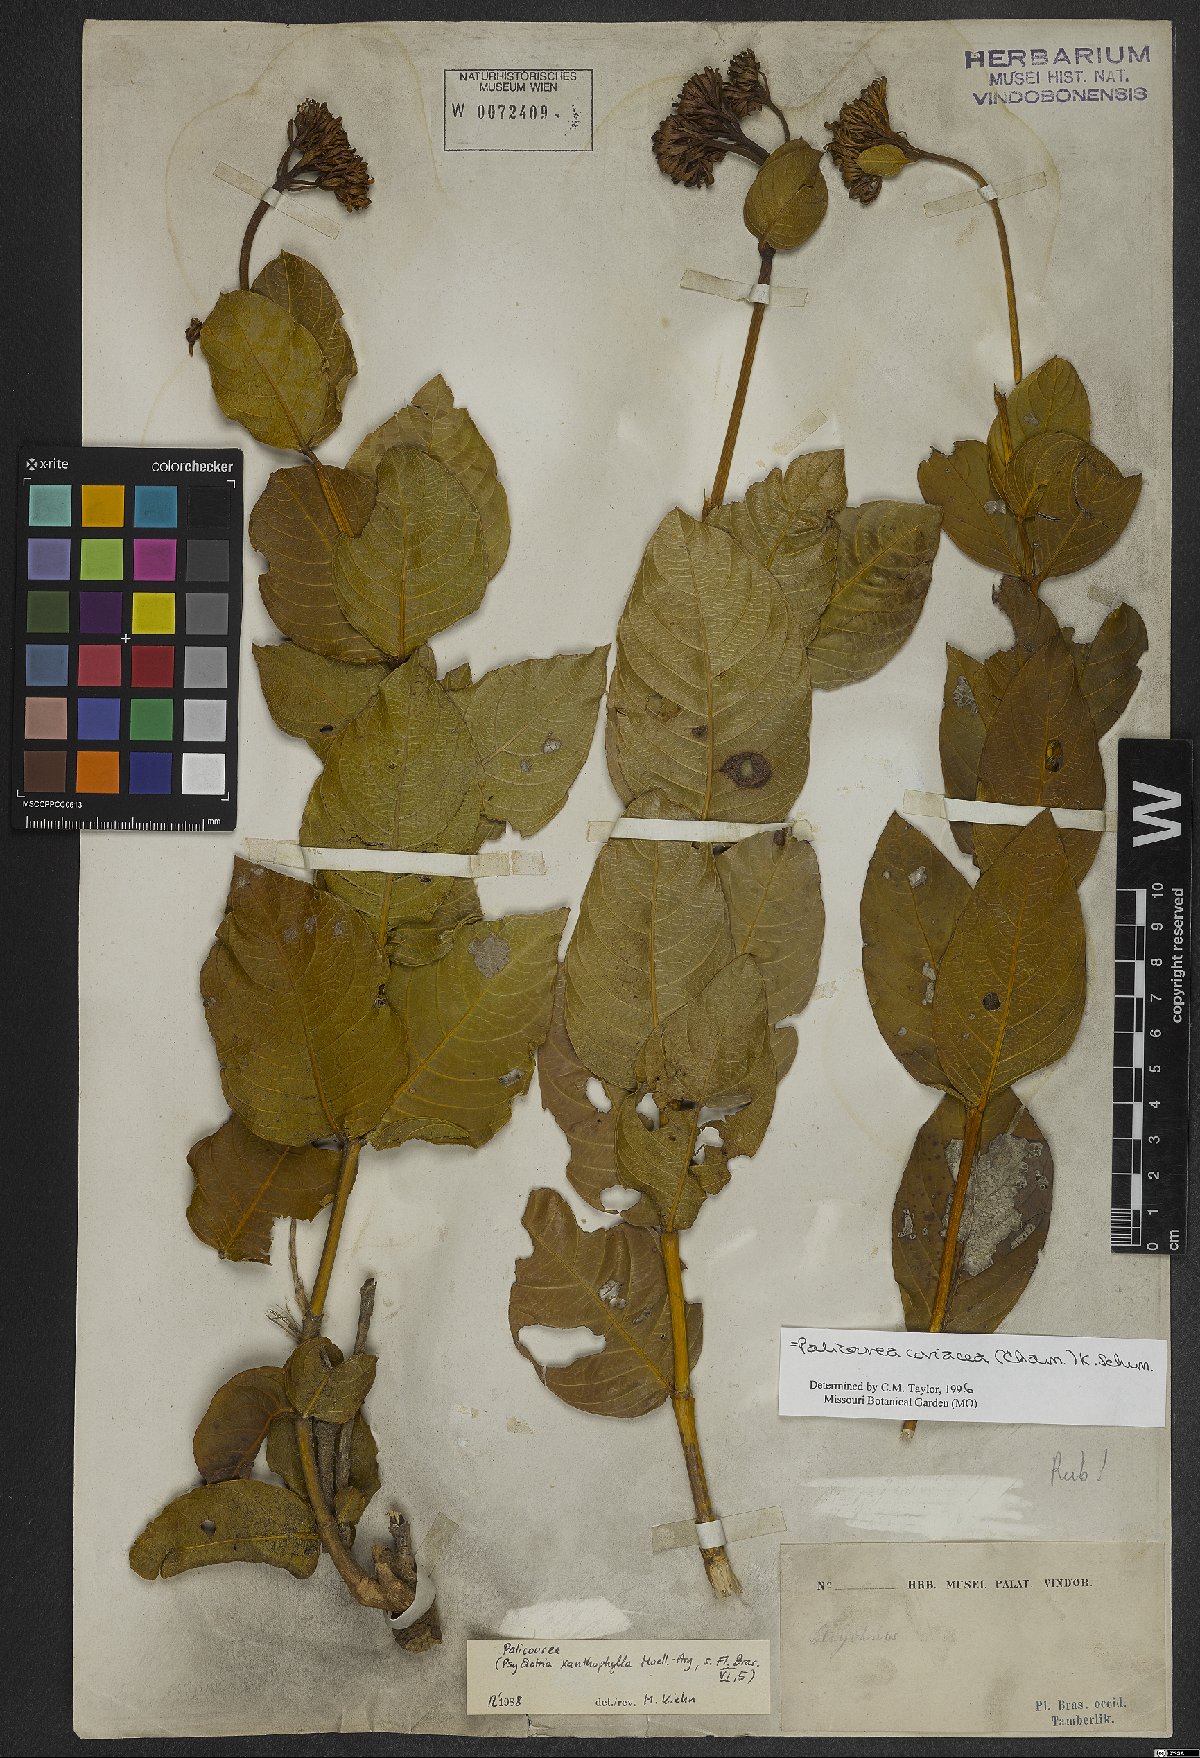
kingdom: Plantae
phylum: Tracheophyta
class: Magnoliopsida
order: Gentianales
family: Rubiaceae
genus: Palicourea
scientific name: Palicourea coriacea
